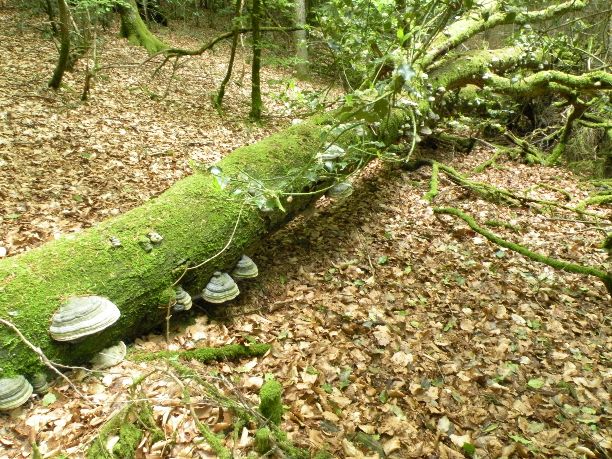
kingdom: Fungi
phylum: Basidiomycota
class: Agaricomycetes
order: Polyporales
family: Polyporaceae
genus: Fomes
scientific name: Fomes fomentarius
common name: tøndersvamp
